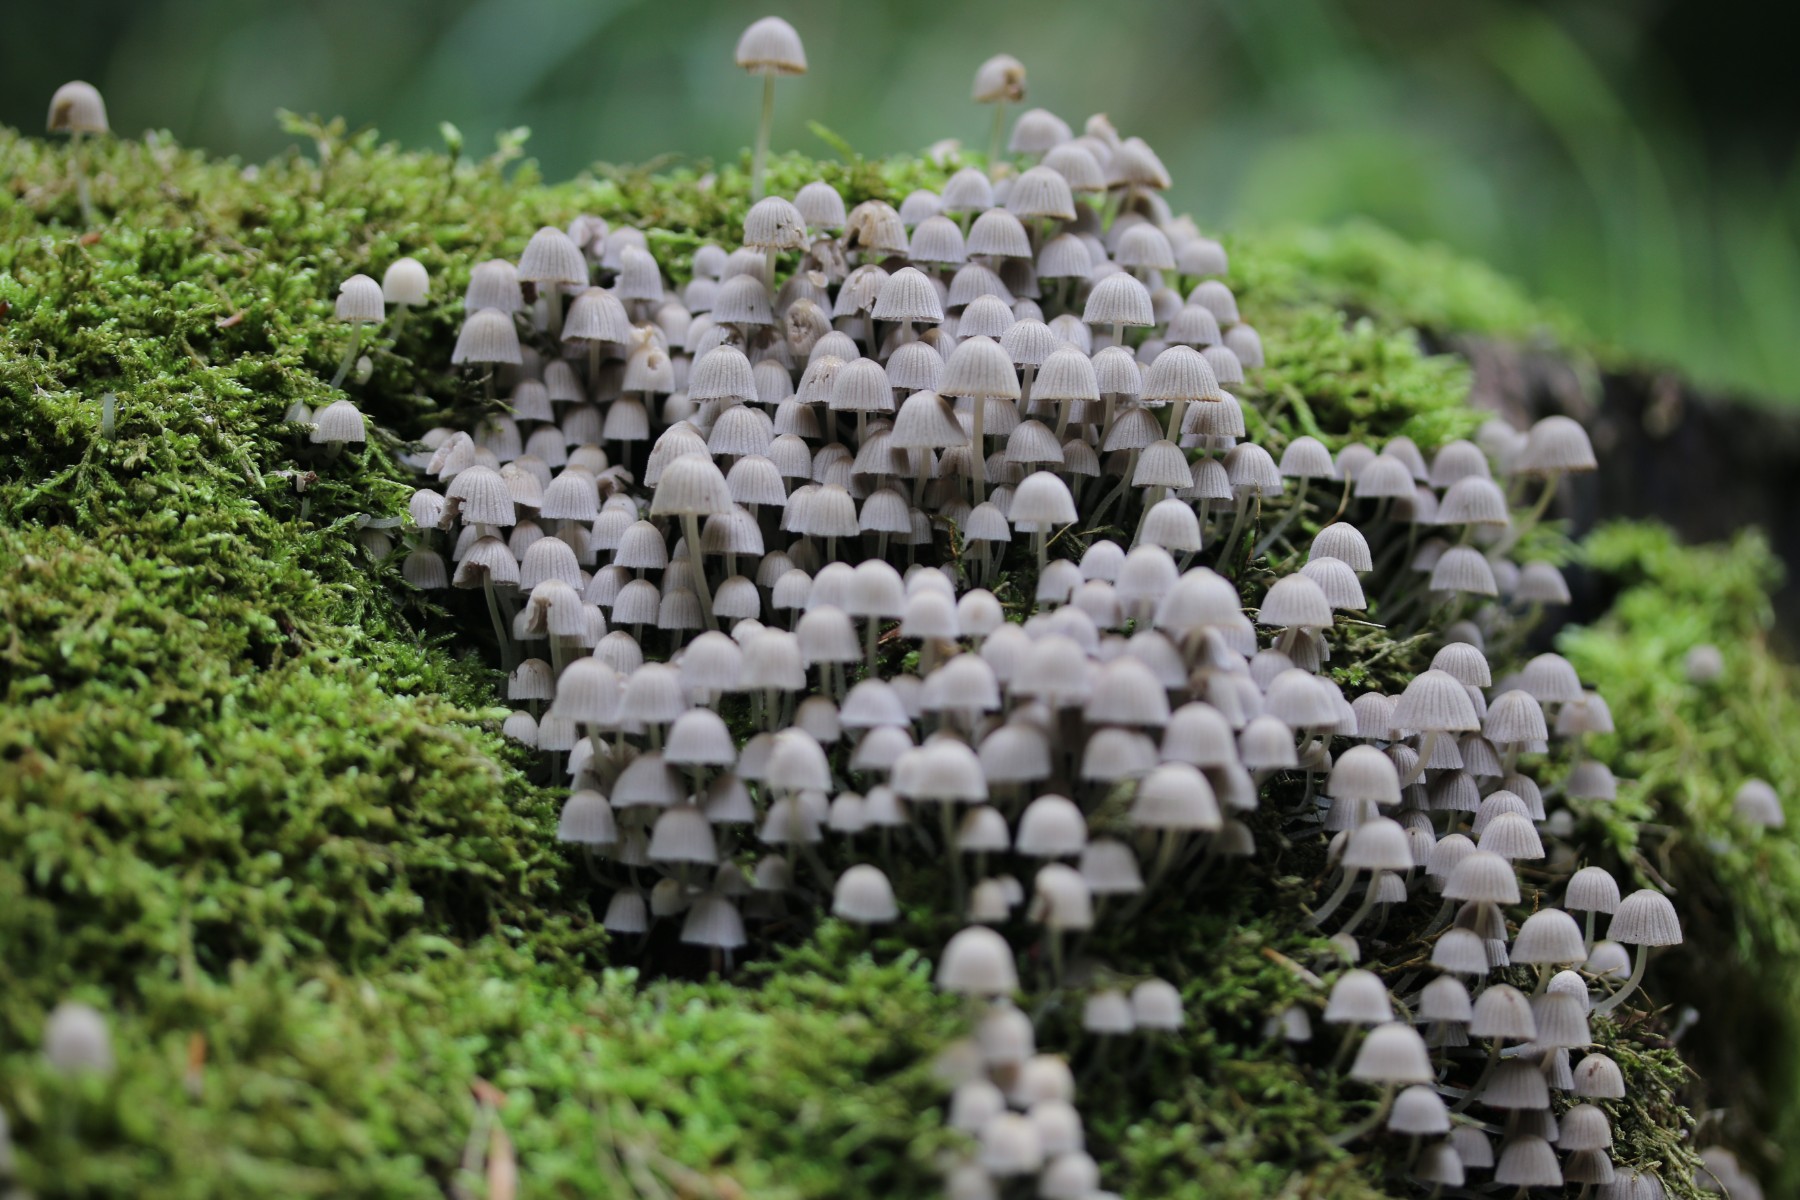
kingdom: Fungi
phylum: Basidiomycota
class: Agaricomycetes
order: Agaricales
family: Psathyrellaceae
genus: Coprinellus
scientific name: Coprinellus disseminatus
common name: bredsået blækhat
